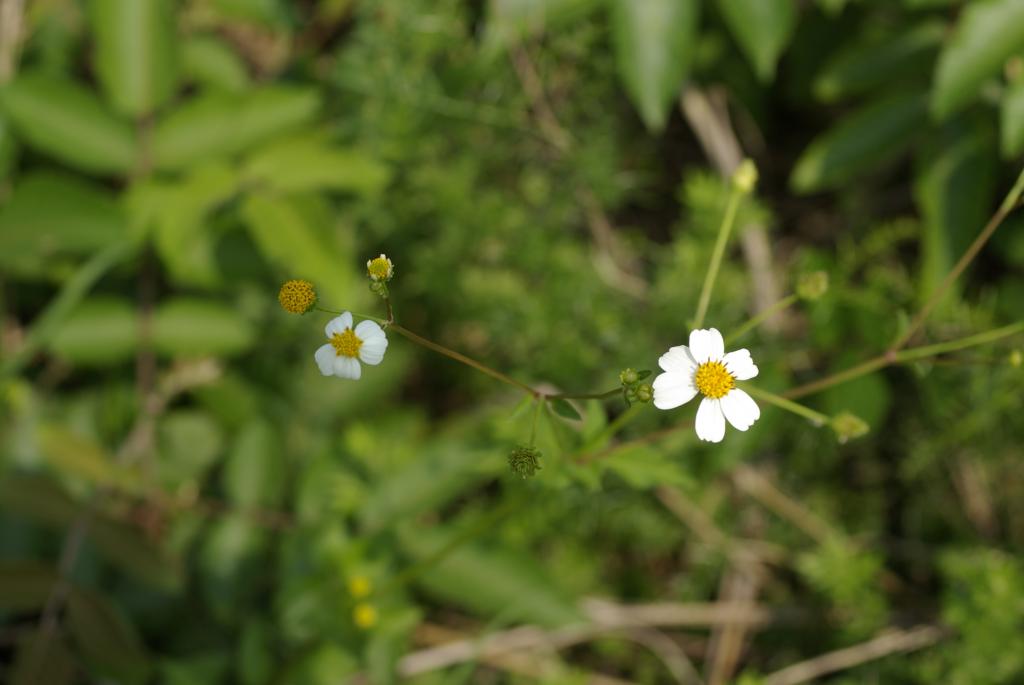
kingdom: Plantae
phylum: Tracheophyta
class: Magnoliopsida
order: Asterales
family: Asteraceae
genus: Bidens
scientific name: Bidens pilosa
